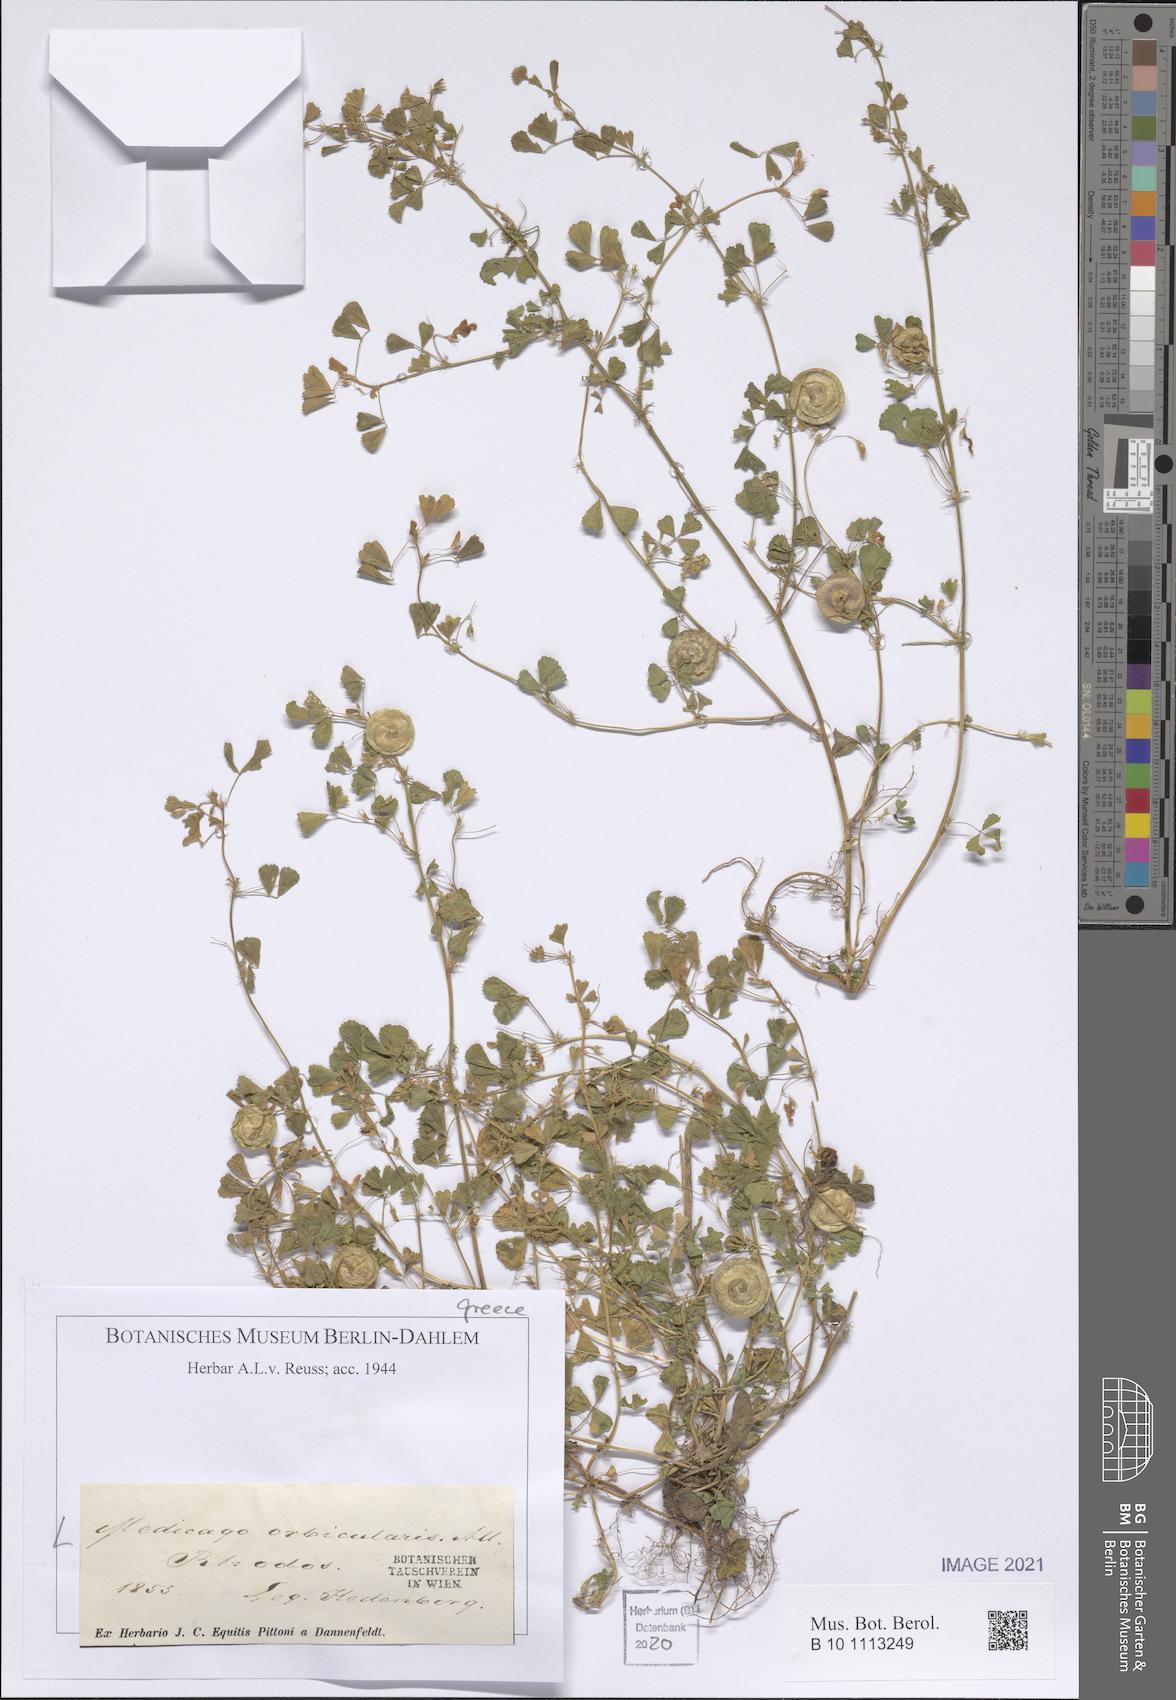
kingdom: Plantae
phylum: Tracheophyta
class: Magnoliopsida
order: Fabales
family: Fabaceae
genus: Medicago
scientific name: Medicago orbicularis
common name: Button medick
